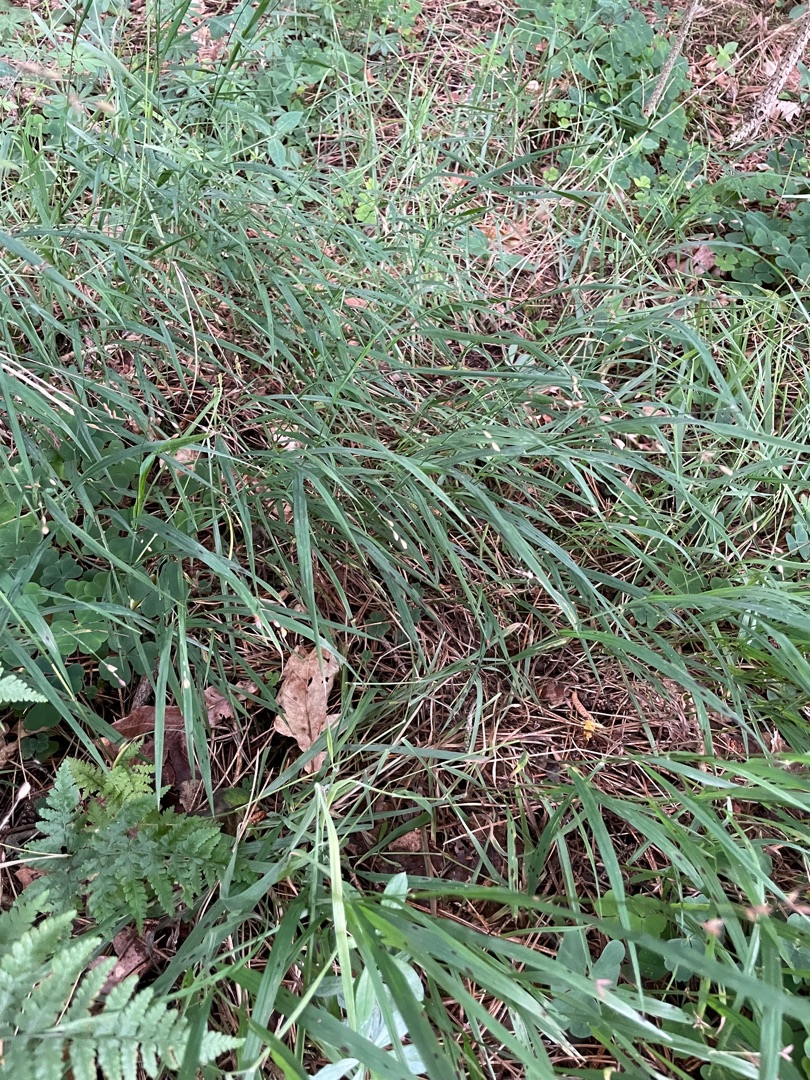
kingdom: Plantae
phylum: Tracheophyta
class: Liliopsida
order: Poales
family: Poaceae
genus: Melica
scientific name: Melica uniflora
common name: Enblomstret flitteraks
